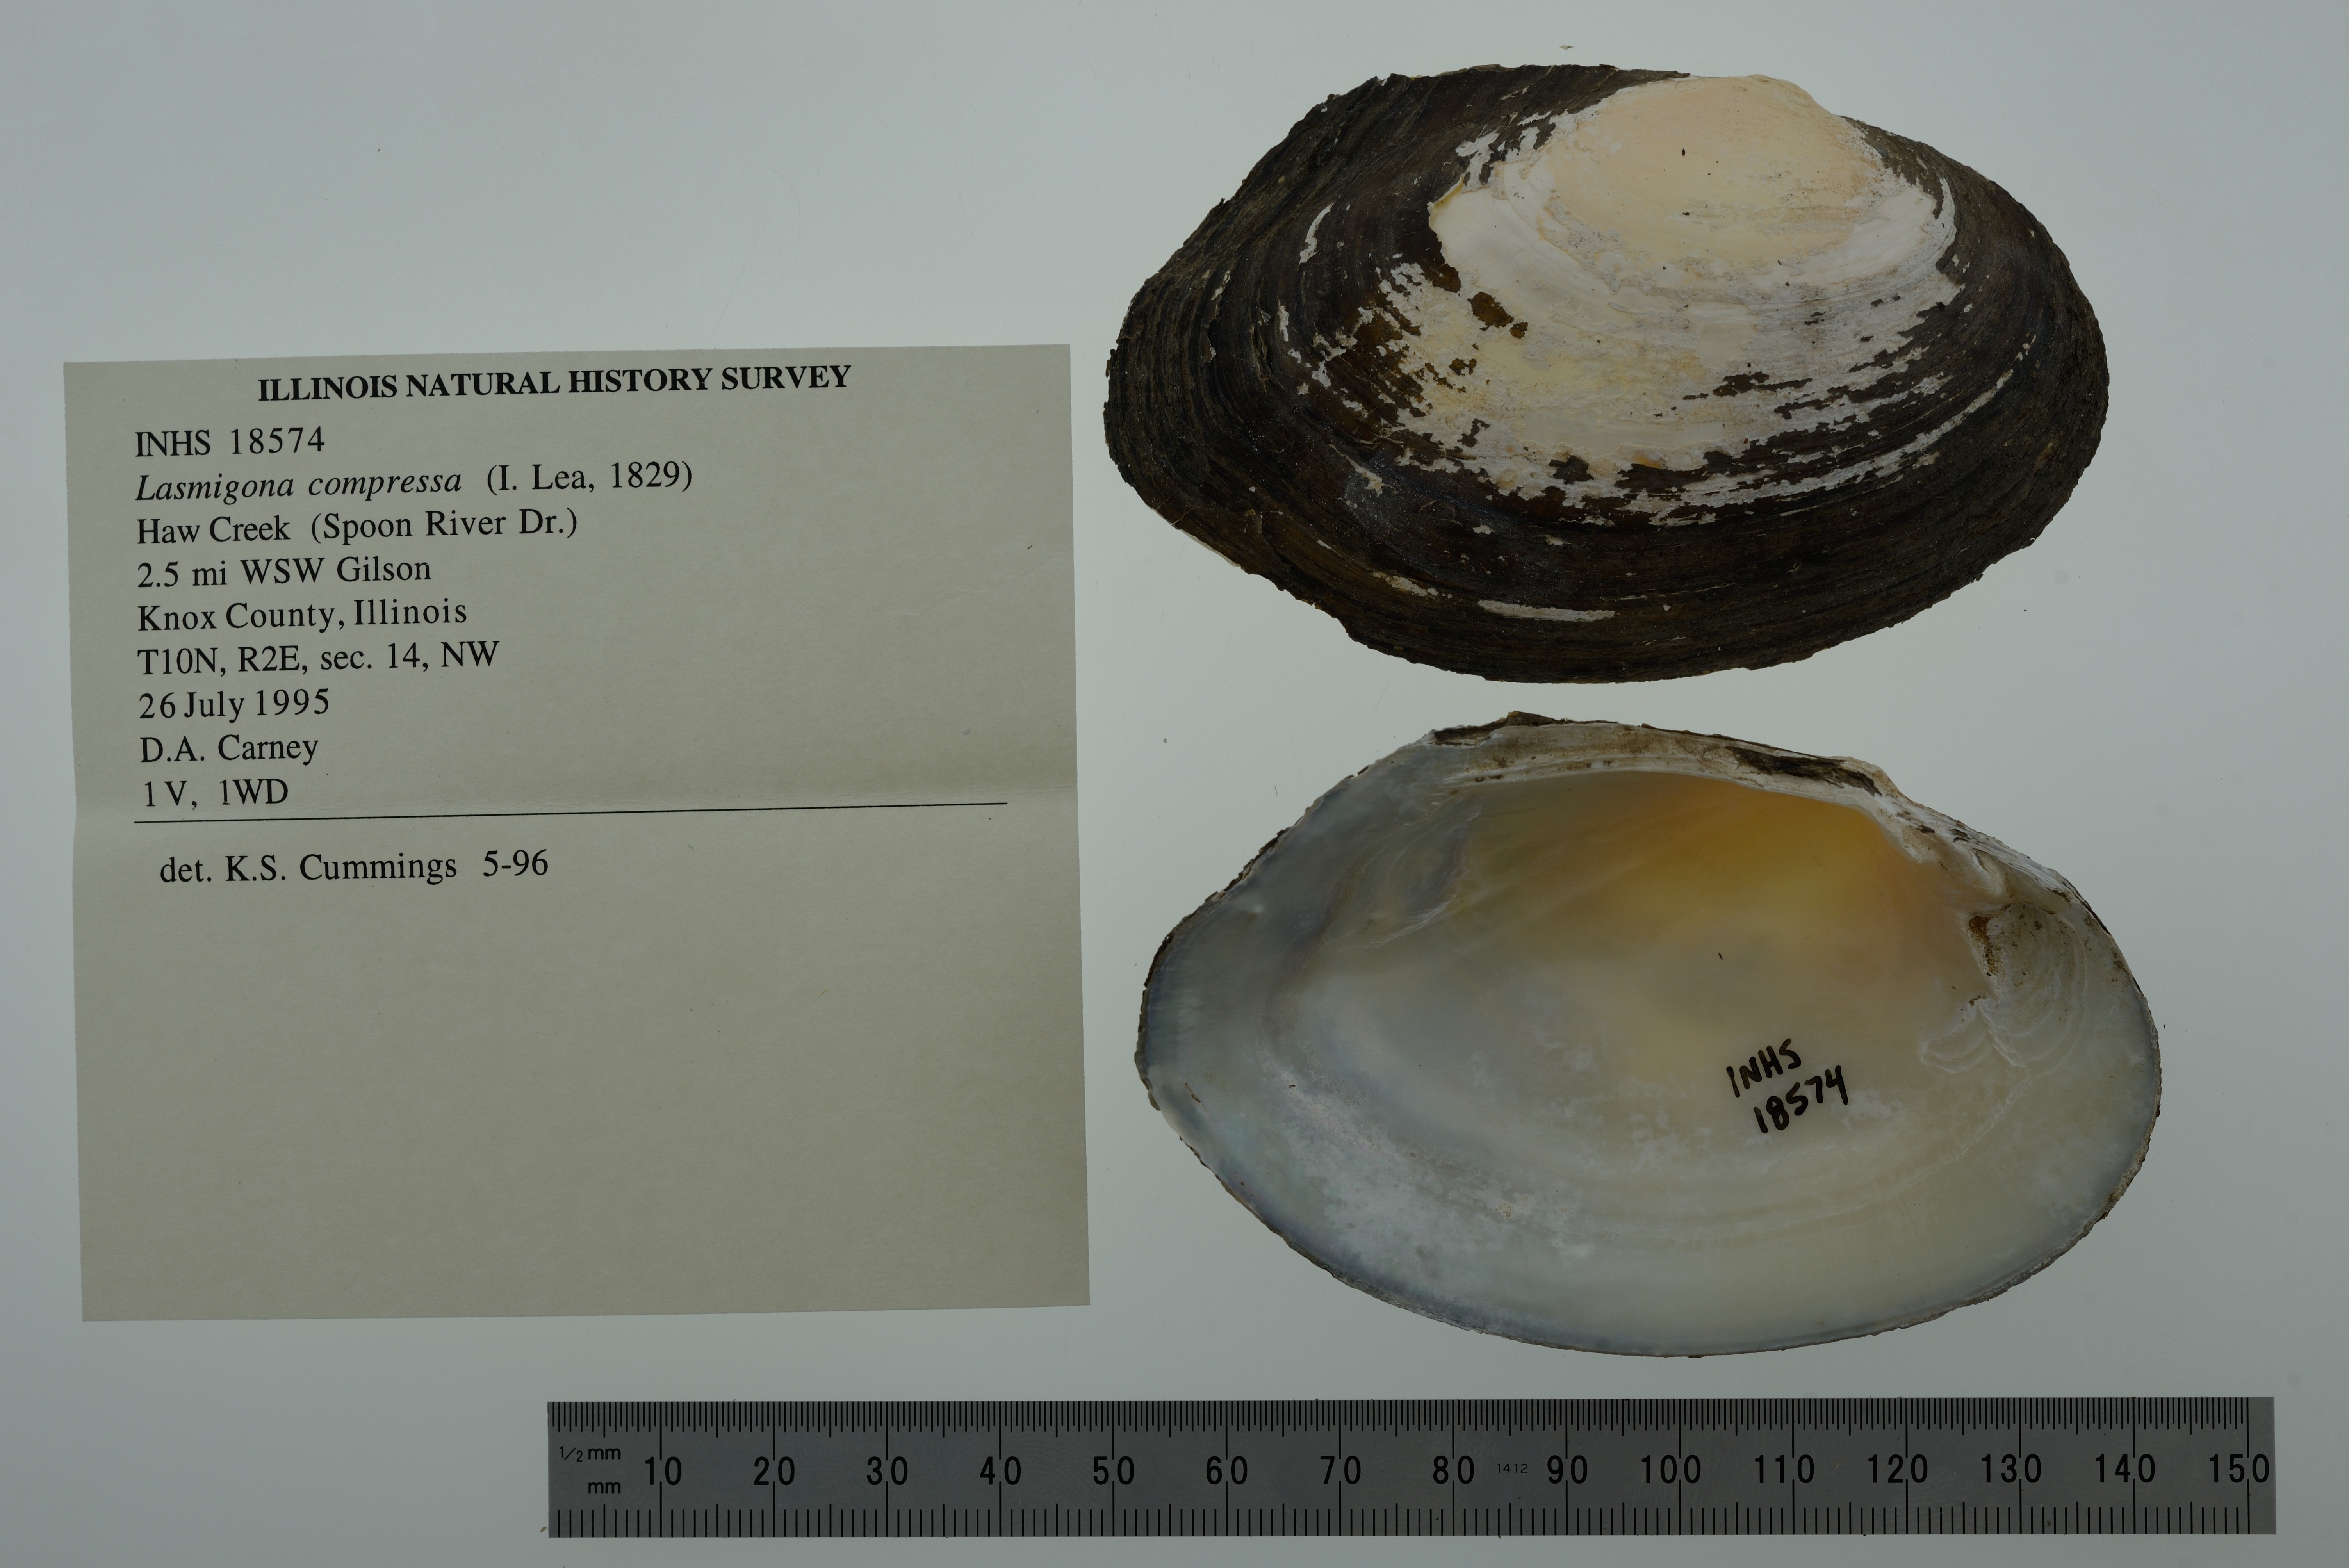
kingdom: Animalia
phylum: Mollusca
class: Bivalvia
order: Unionida
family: Unionidae
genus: Lasmigona
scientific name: Lasmigona compressa
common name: Creek heelsplitter
